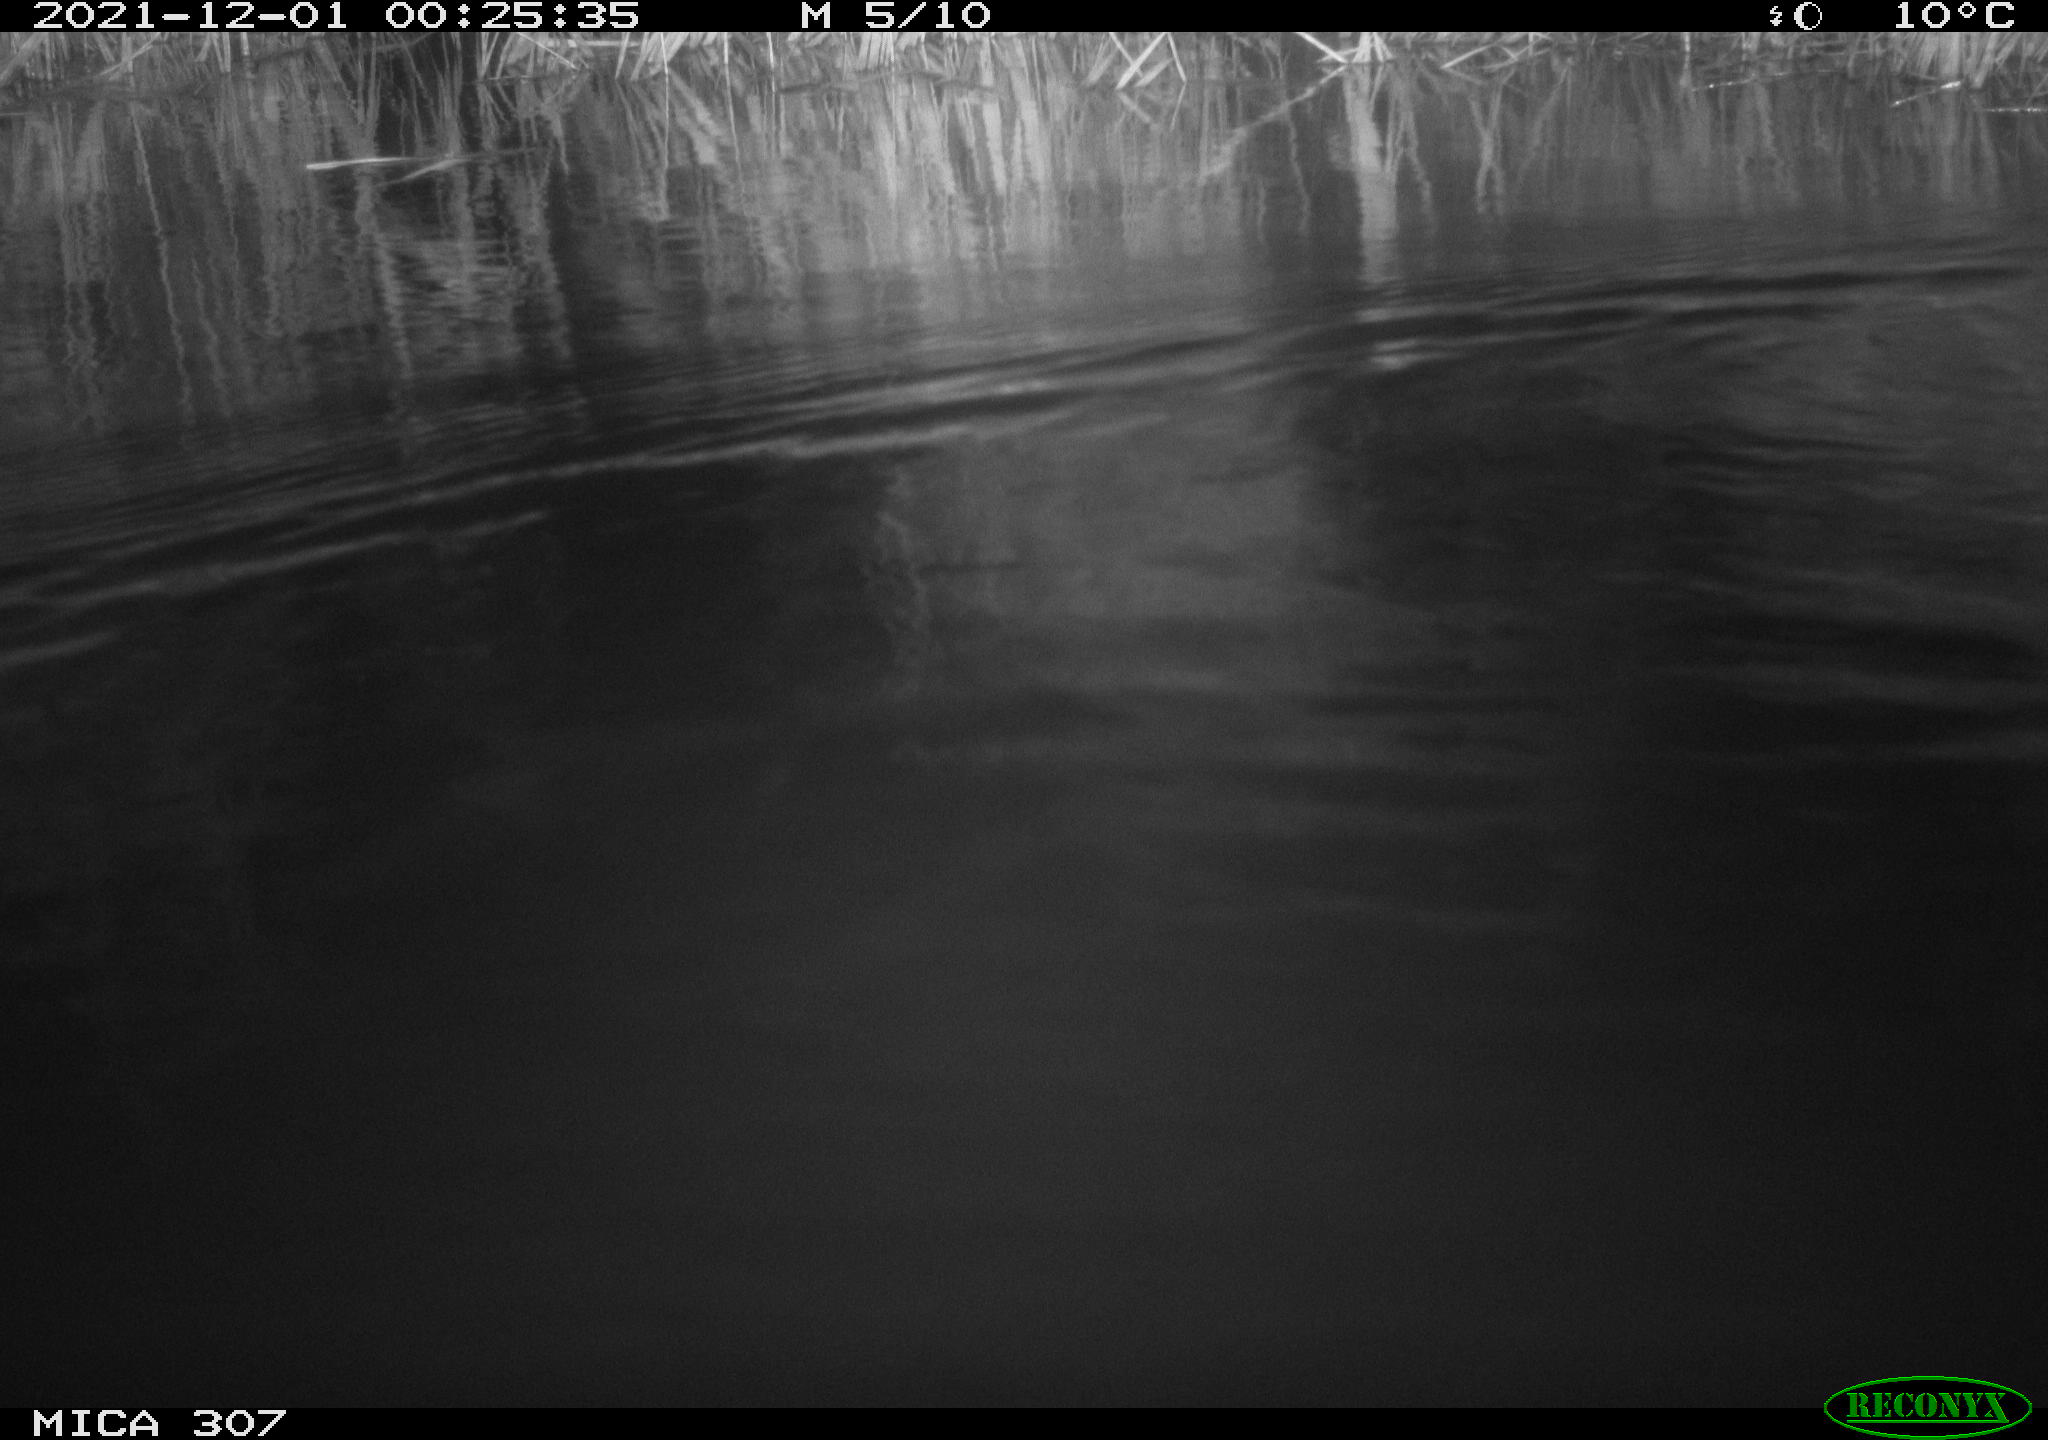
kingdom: Animalia
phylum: Chordata
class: Mammalia
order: Rodentia
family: Muridae
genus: Rattus
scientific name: Rattus norvegicus
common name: Brown rat
